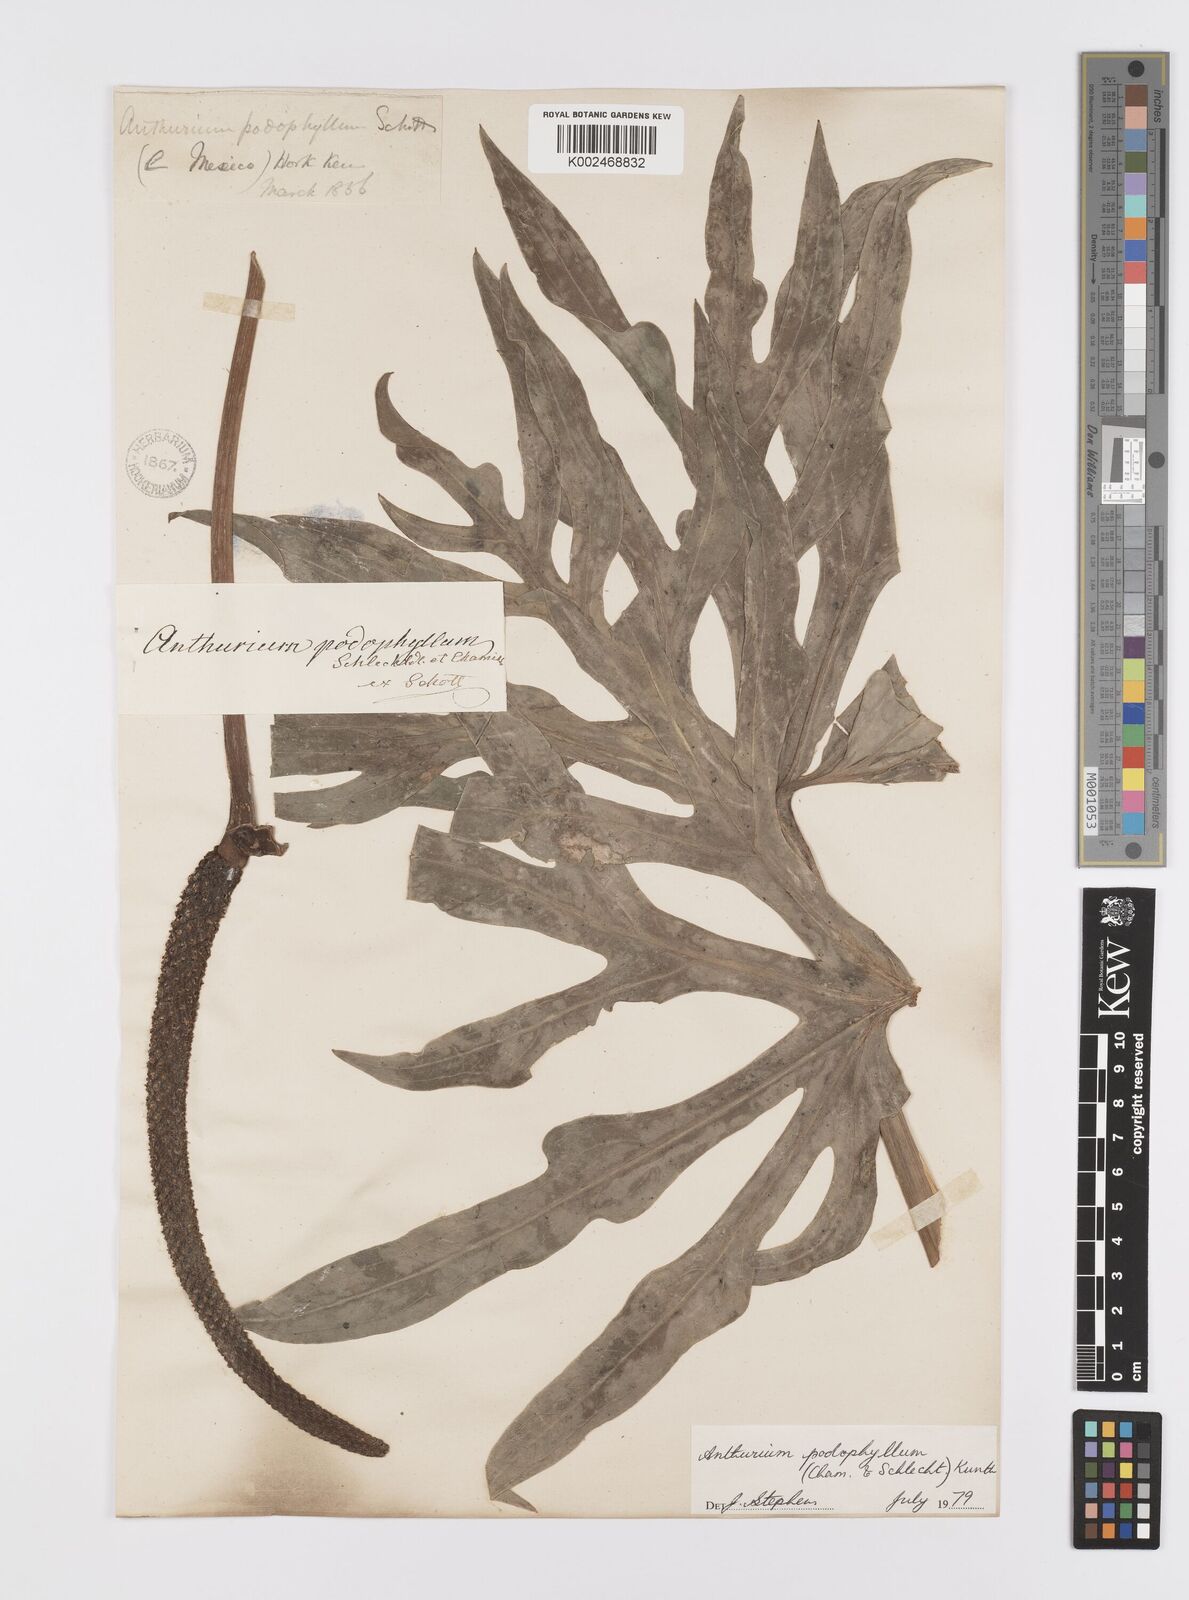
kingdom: Plantae
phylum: Tracheophyta
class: Liliopsida
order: Alismatales
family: Araceae
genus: Anthurium
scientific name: Anthurium podophyllum
